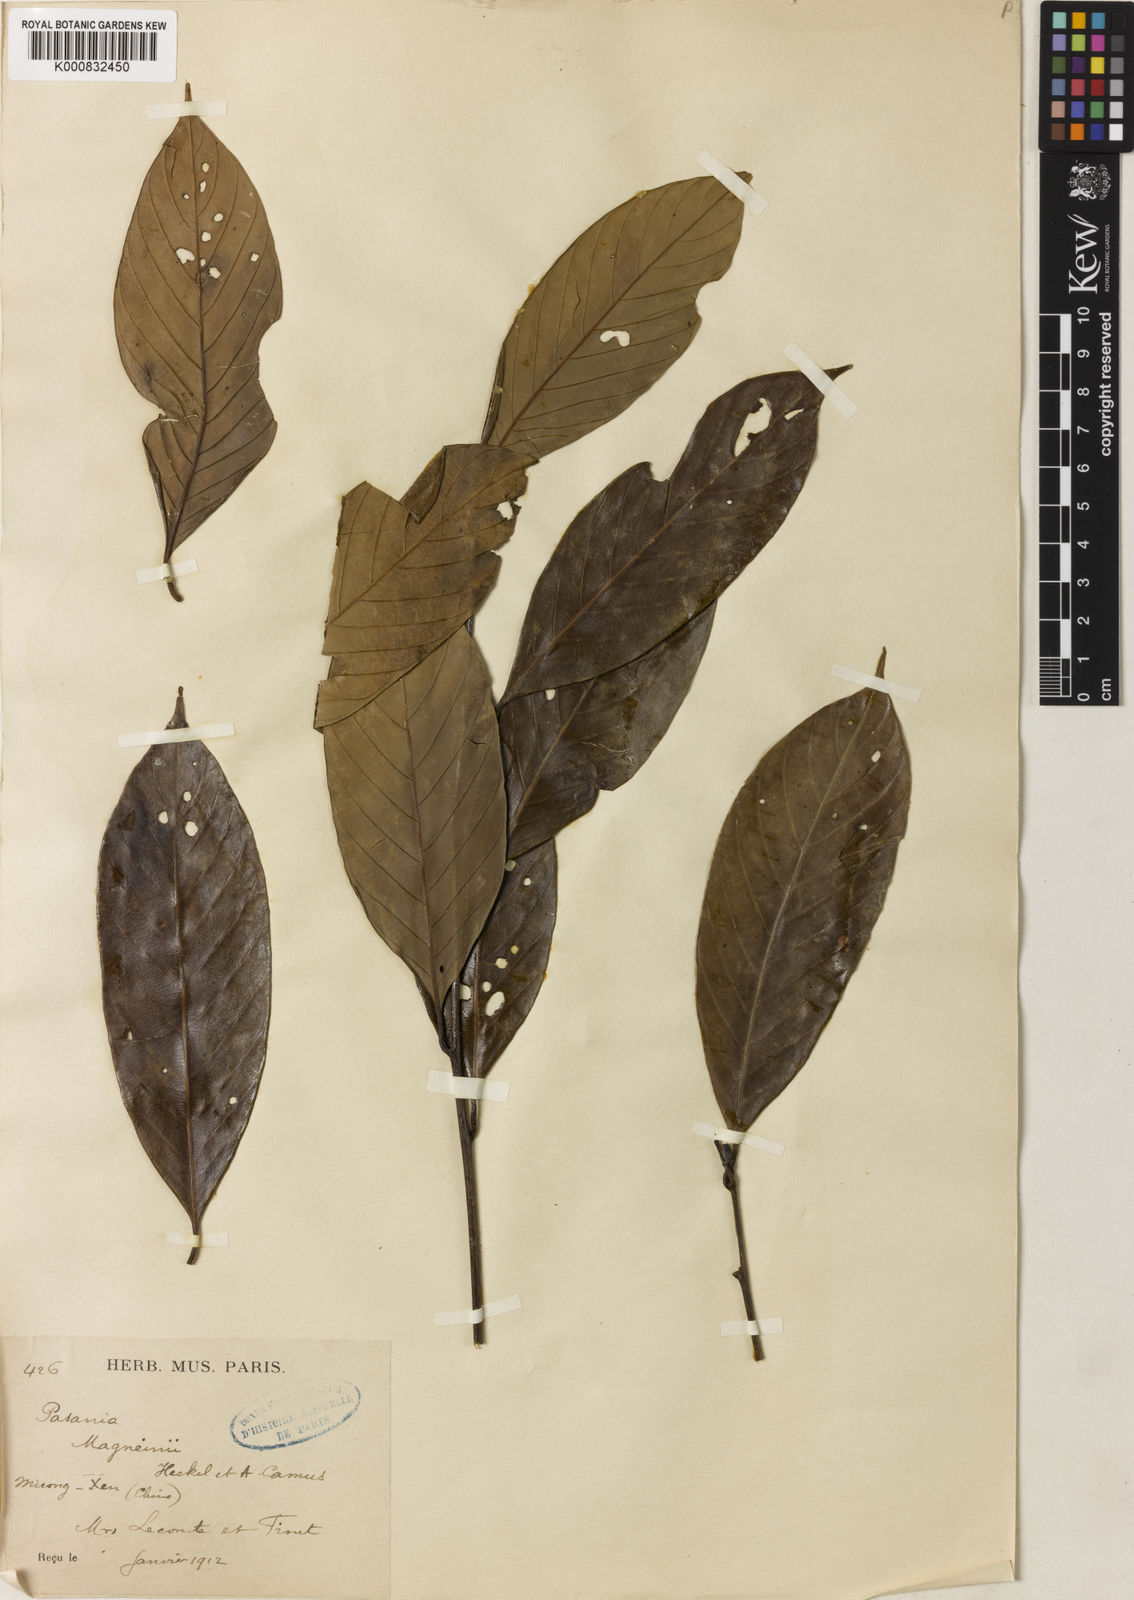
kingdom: Plantae
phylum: Tracheophyta
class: Magnoliopsida
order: Fagales
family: Fagaceae
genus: Lithocarpus
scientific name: Lithocarpus magneinii
